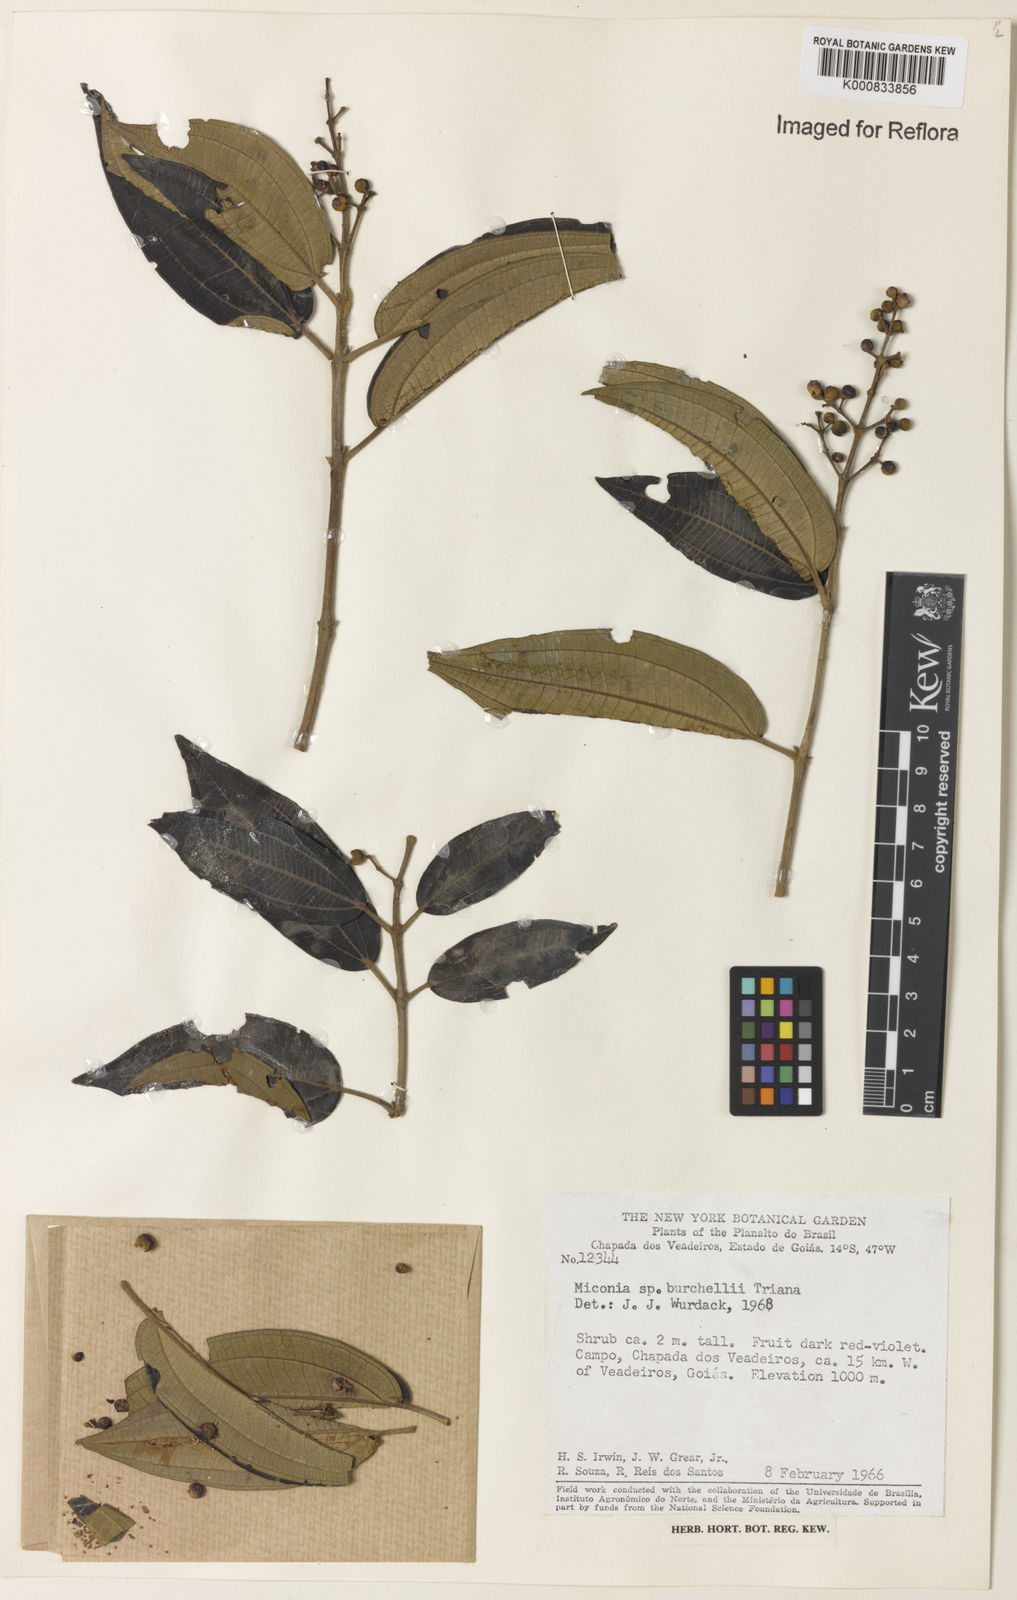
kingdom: Plantae
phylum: Tracheophyta
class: Magnoliopsida
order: Myrtales
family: Melastomataceae
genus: Miconia
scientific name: Miconia burchellii
